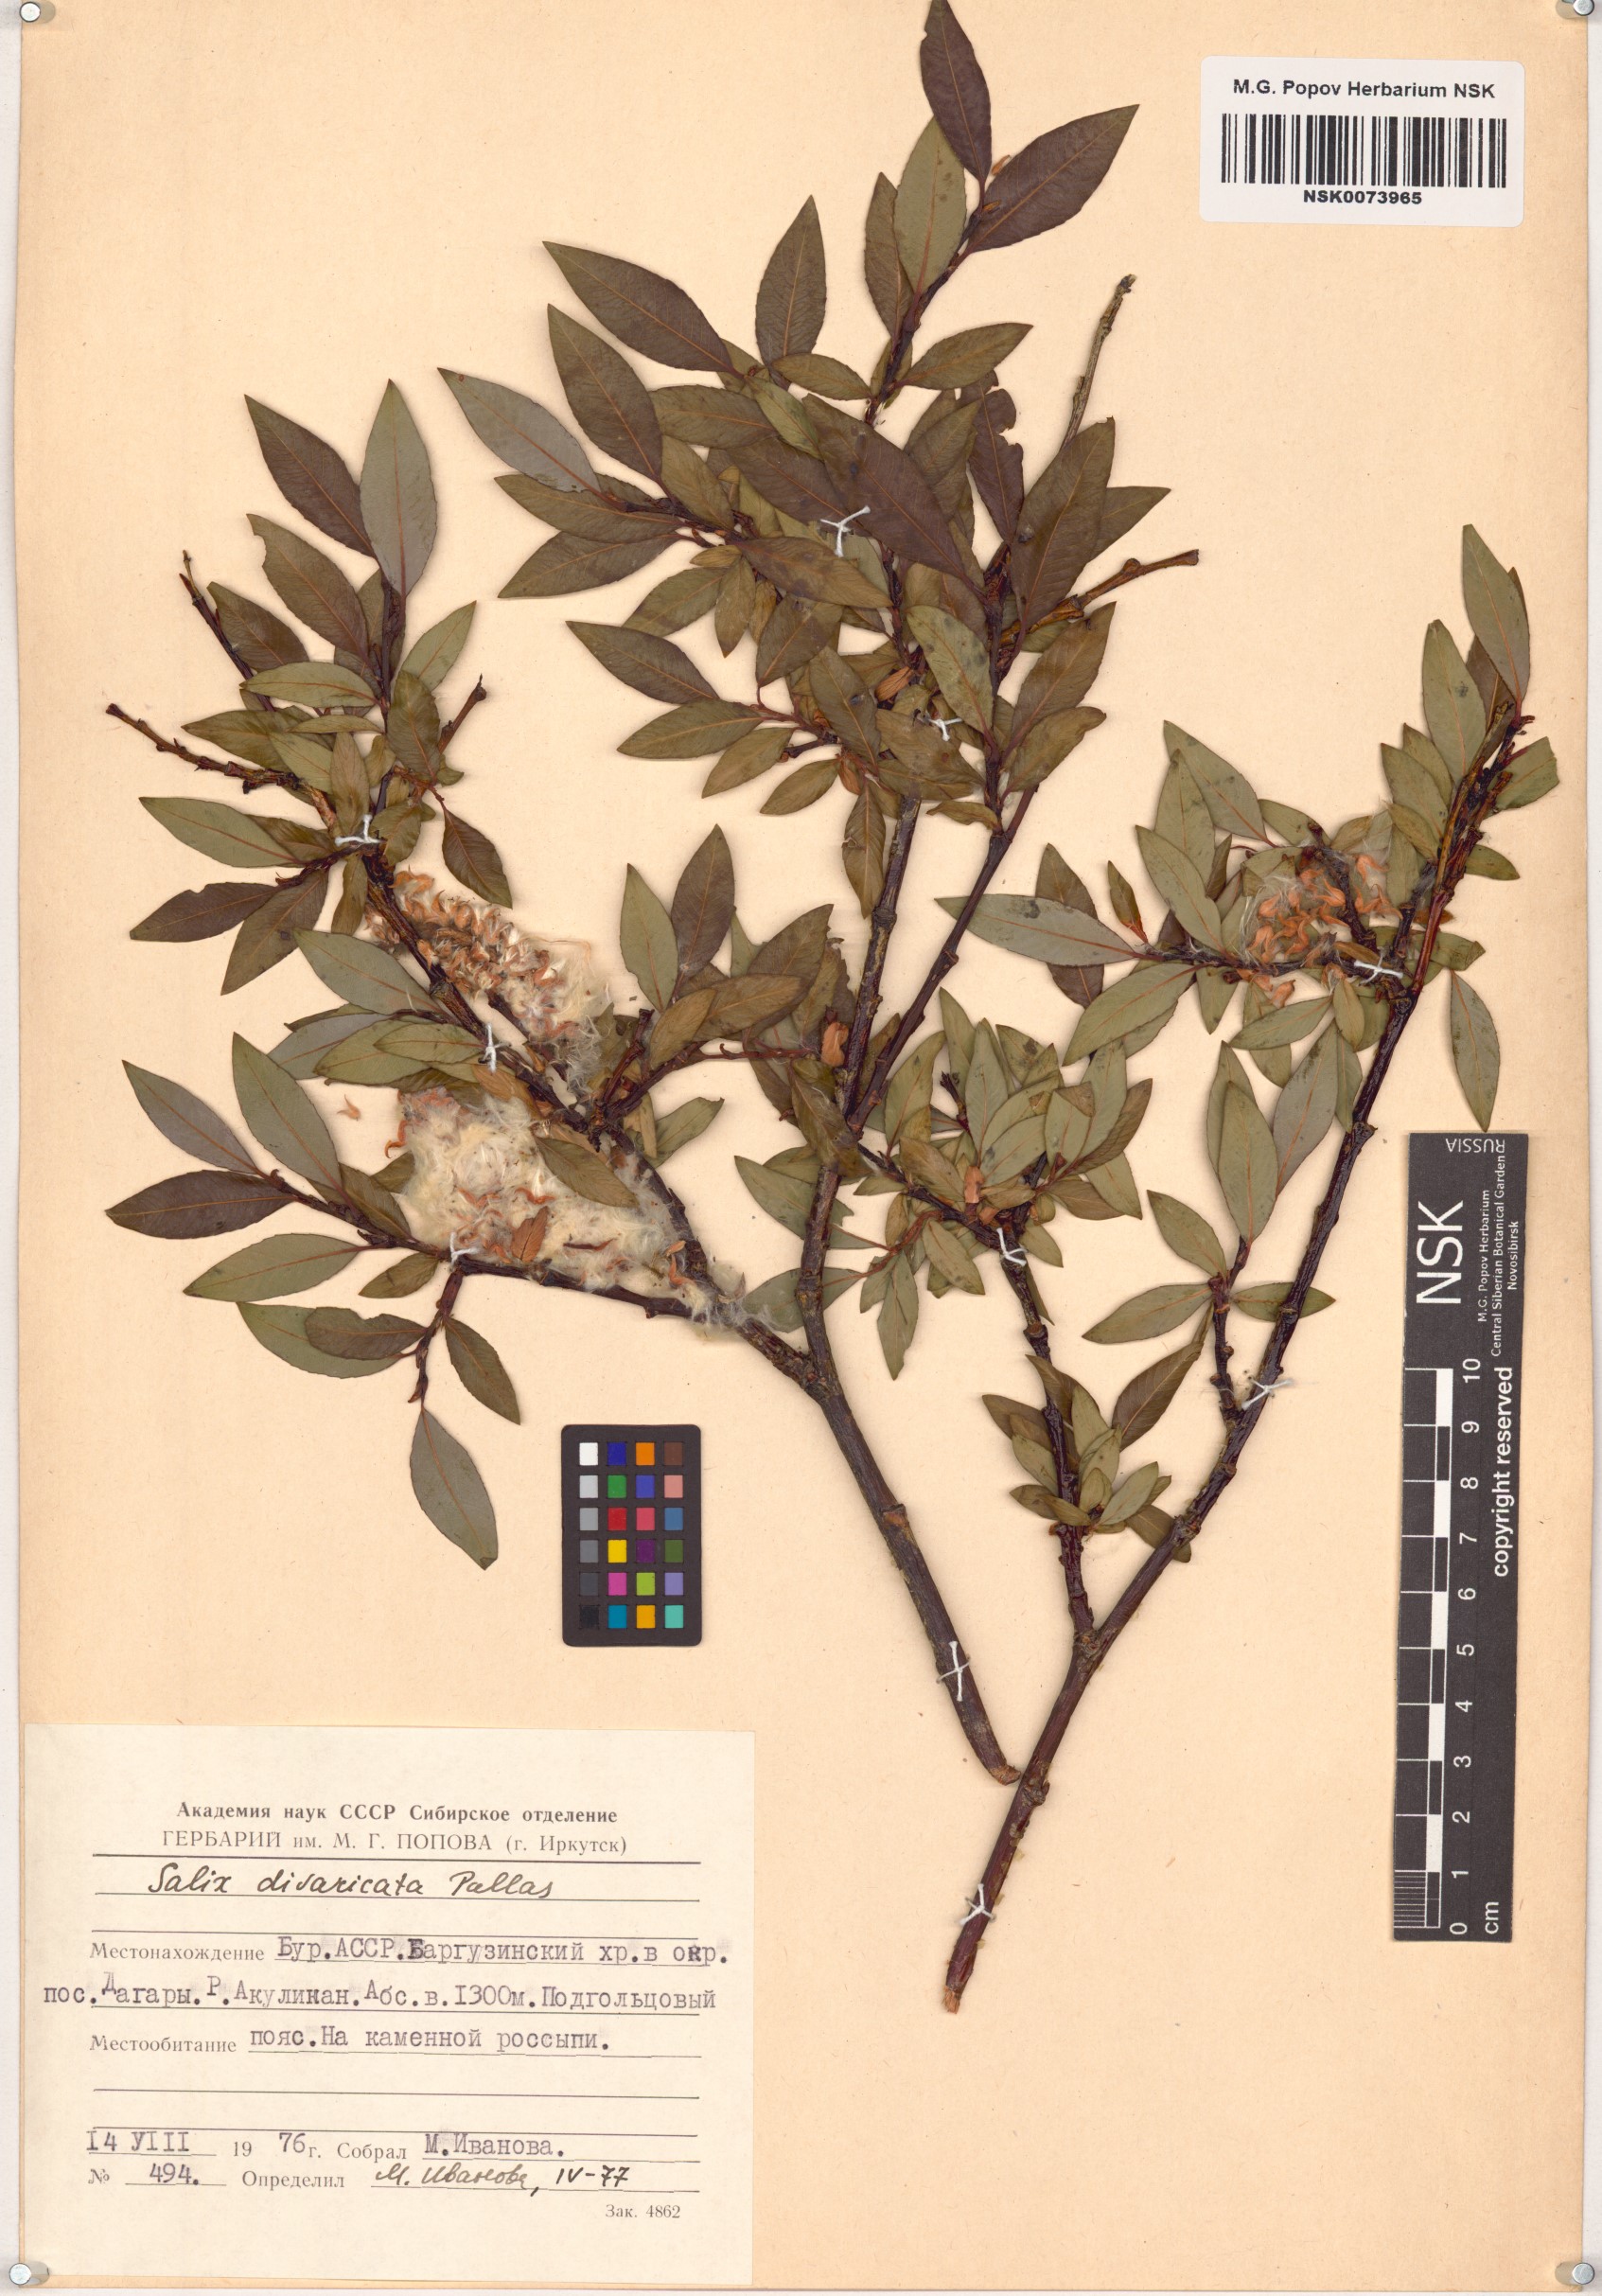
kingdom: Plantae
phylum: Tracheophyta
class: Magnoliopsida
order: Malpighiales
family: Salicaceae
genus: Salix
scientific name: Salix divaricata
